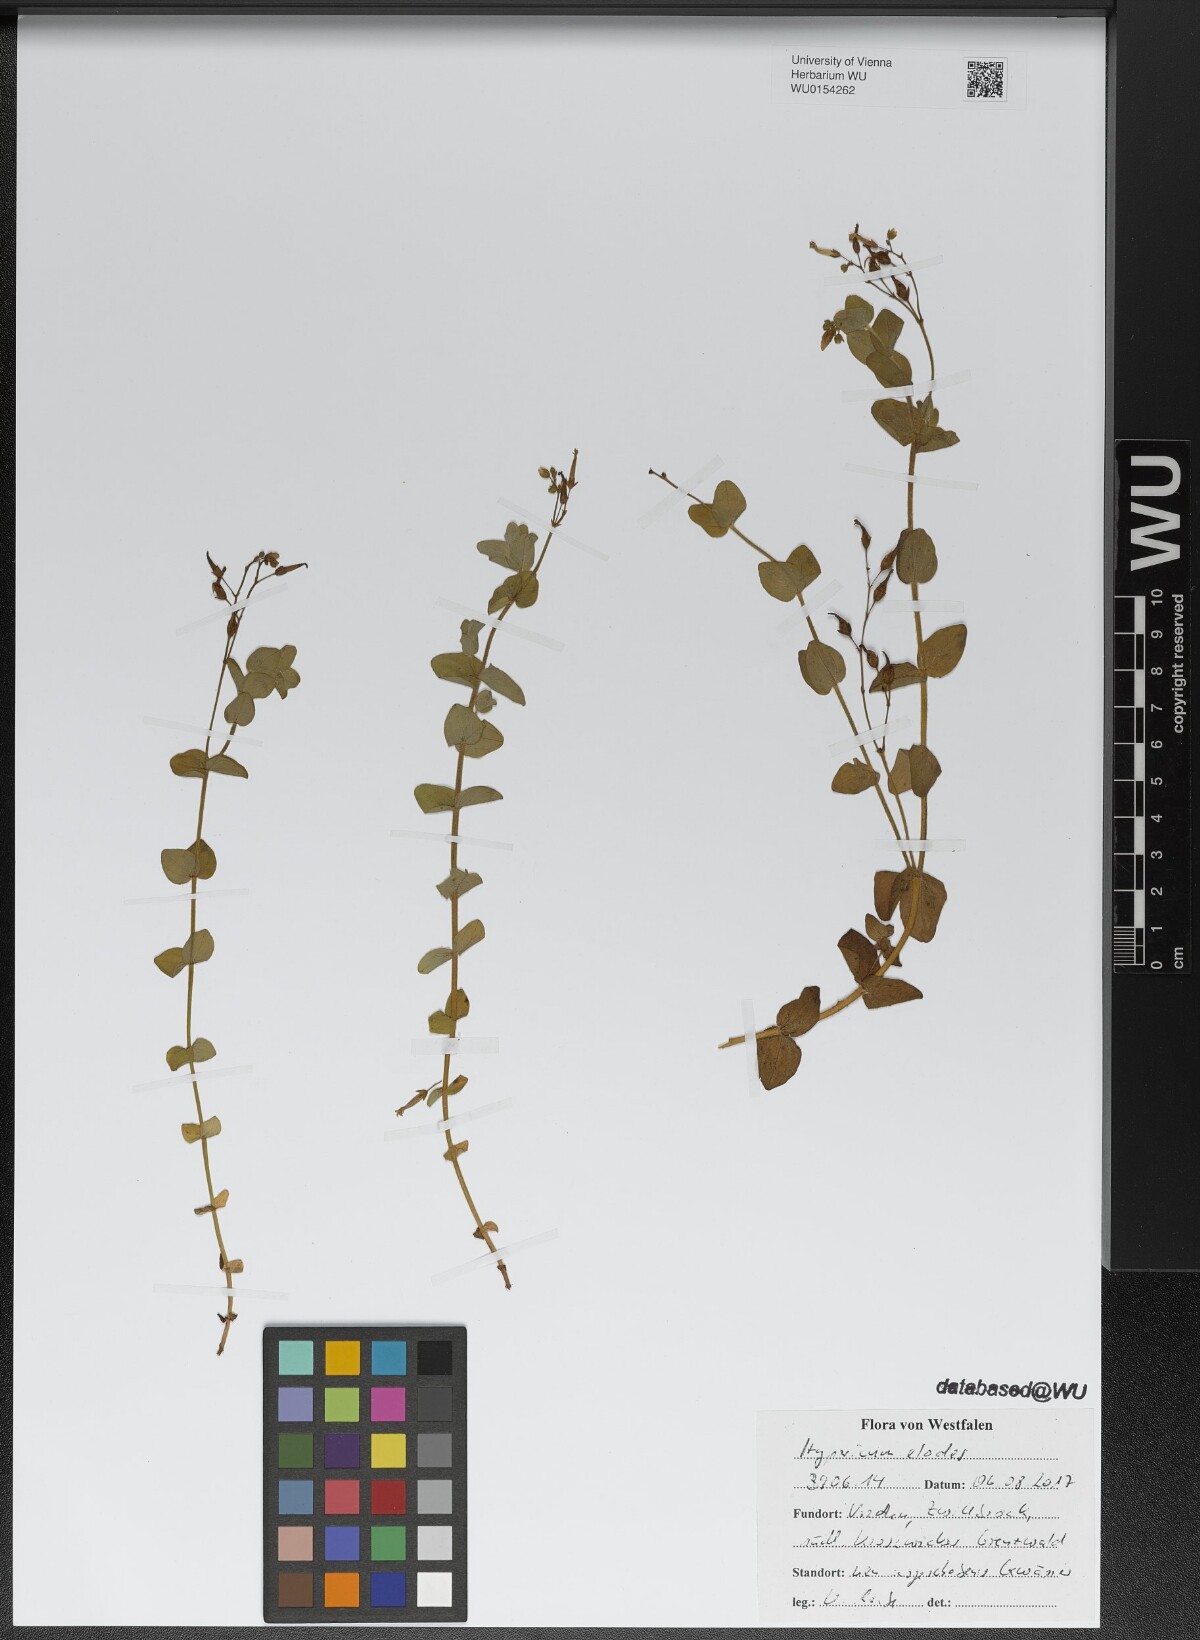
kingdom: Plantae
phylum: Tracheophyta
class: Magnoliopsida
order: Malpighiales
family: Hypericaceae
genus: Hypericum
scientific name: Hypericum elodes
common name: Marsh st. john's-wort
